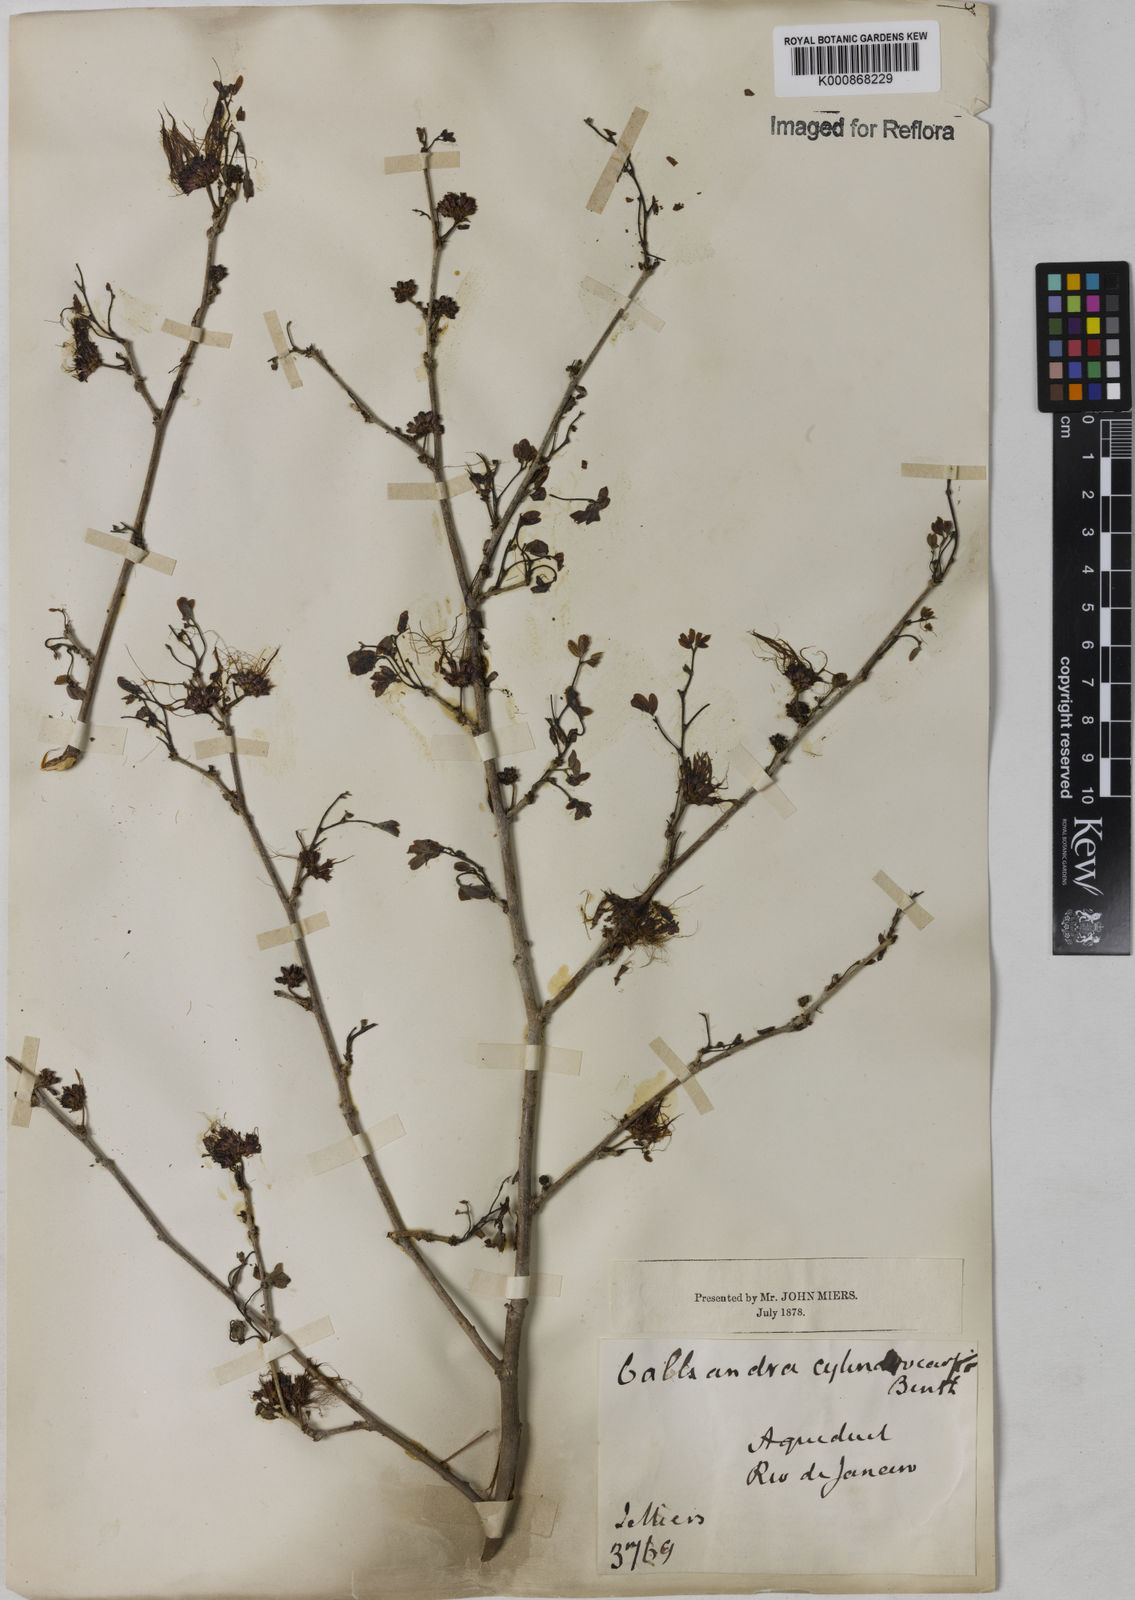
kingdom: Plantae
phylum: Tracheophyta
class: Magnoliopsida
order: Fabales
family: Fabaceae
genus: Calliandra
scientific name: Calliandra harrisii
